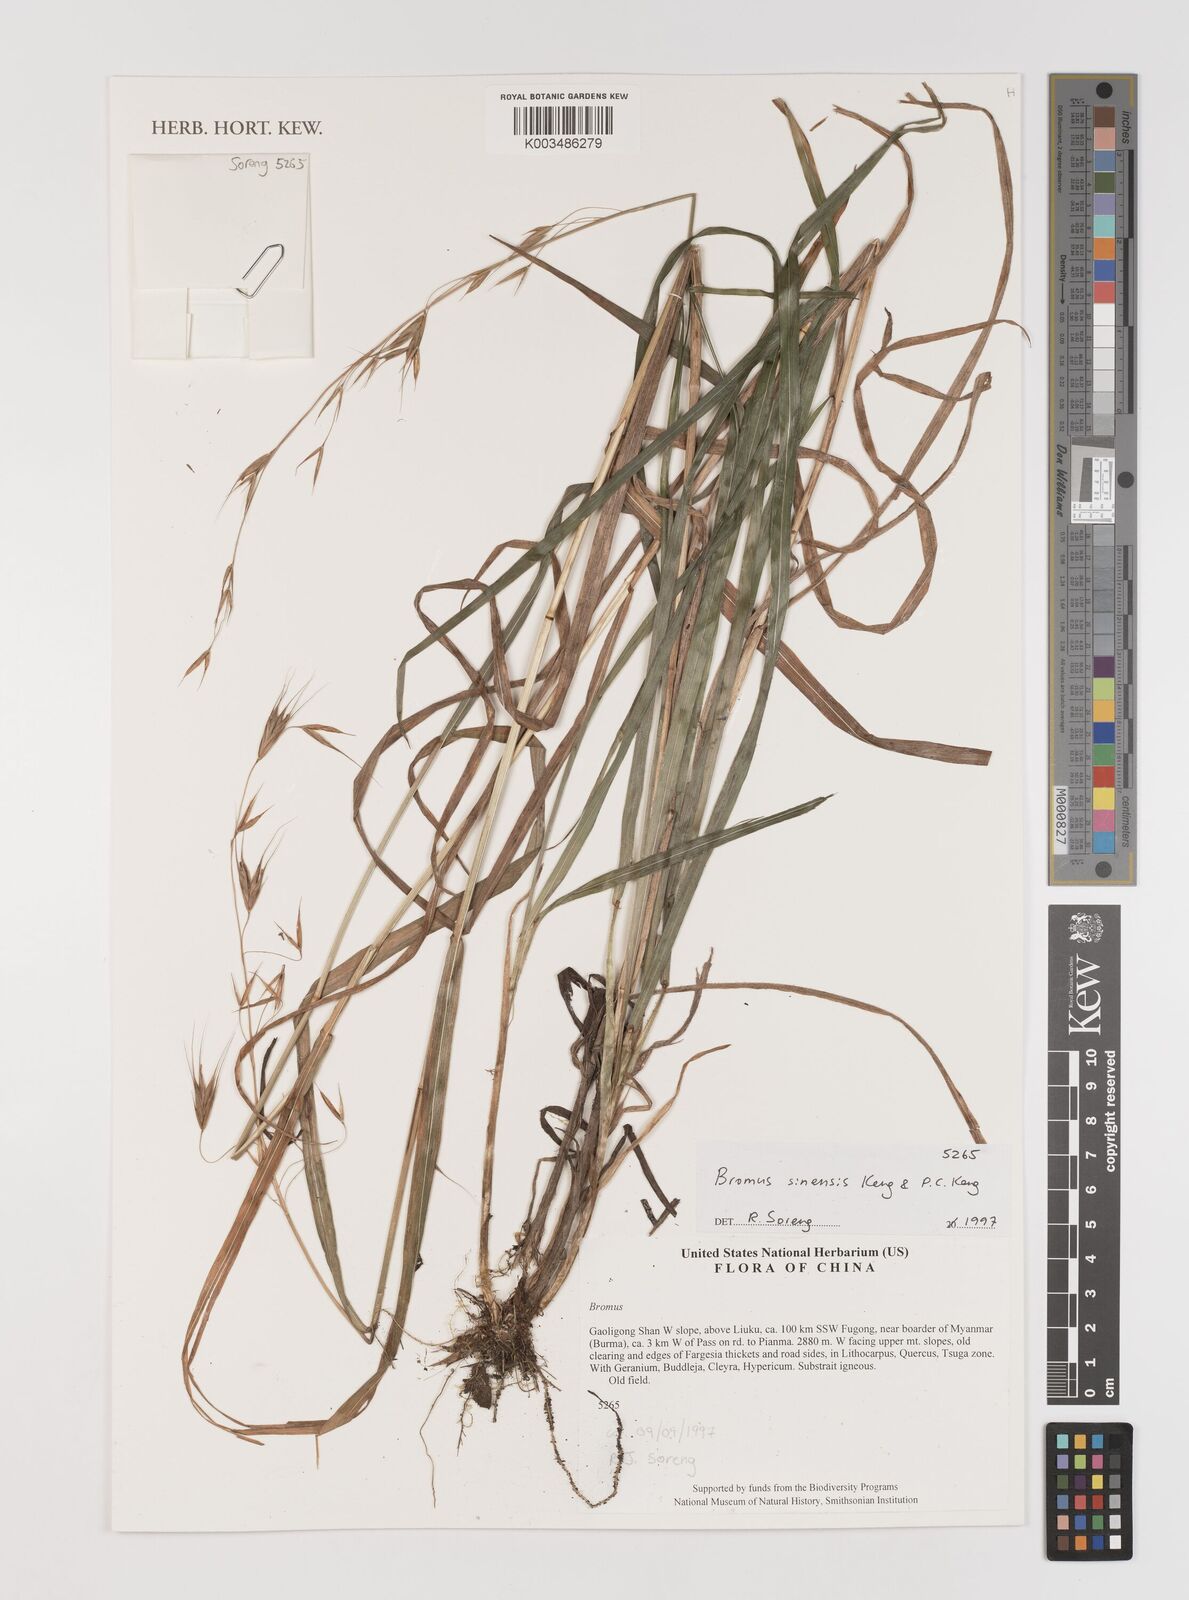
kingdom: Plantae
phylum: Tracheophyta
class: Liliopsida
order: Poales
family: Poaceae
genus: Bromus
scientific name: Bromus
